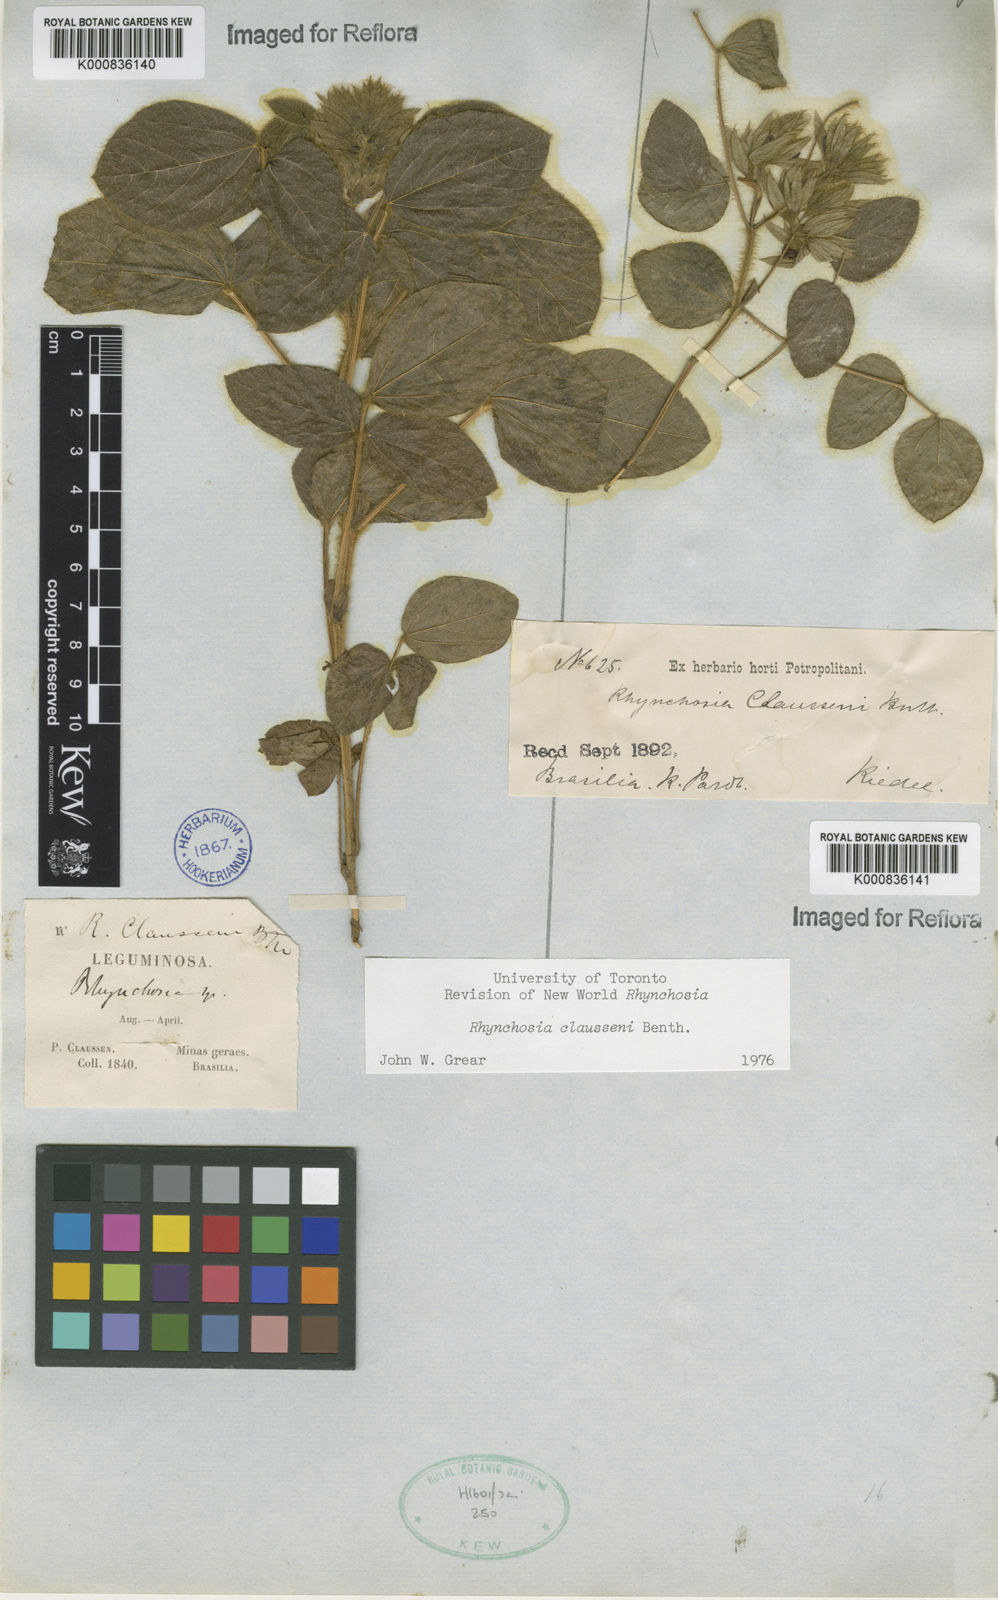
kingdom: Plantae
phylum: Tracheophyta
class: Magnoliopsida
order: Fabales
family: Fabaceae
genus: Rhynchosia
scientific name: Rhynchosia claussenii
